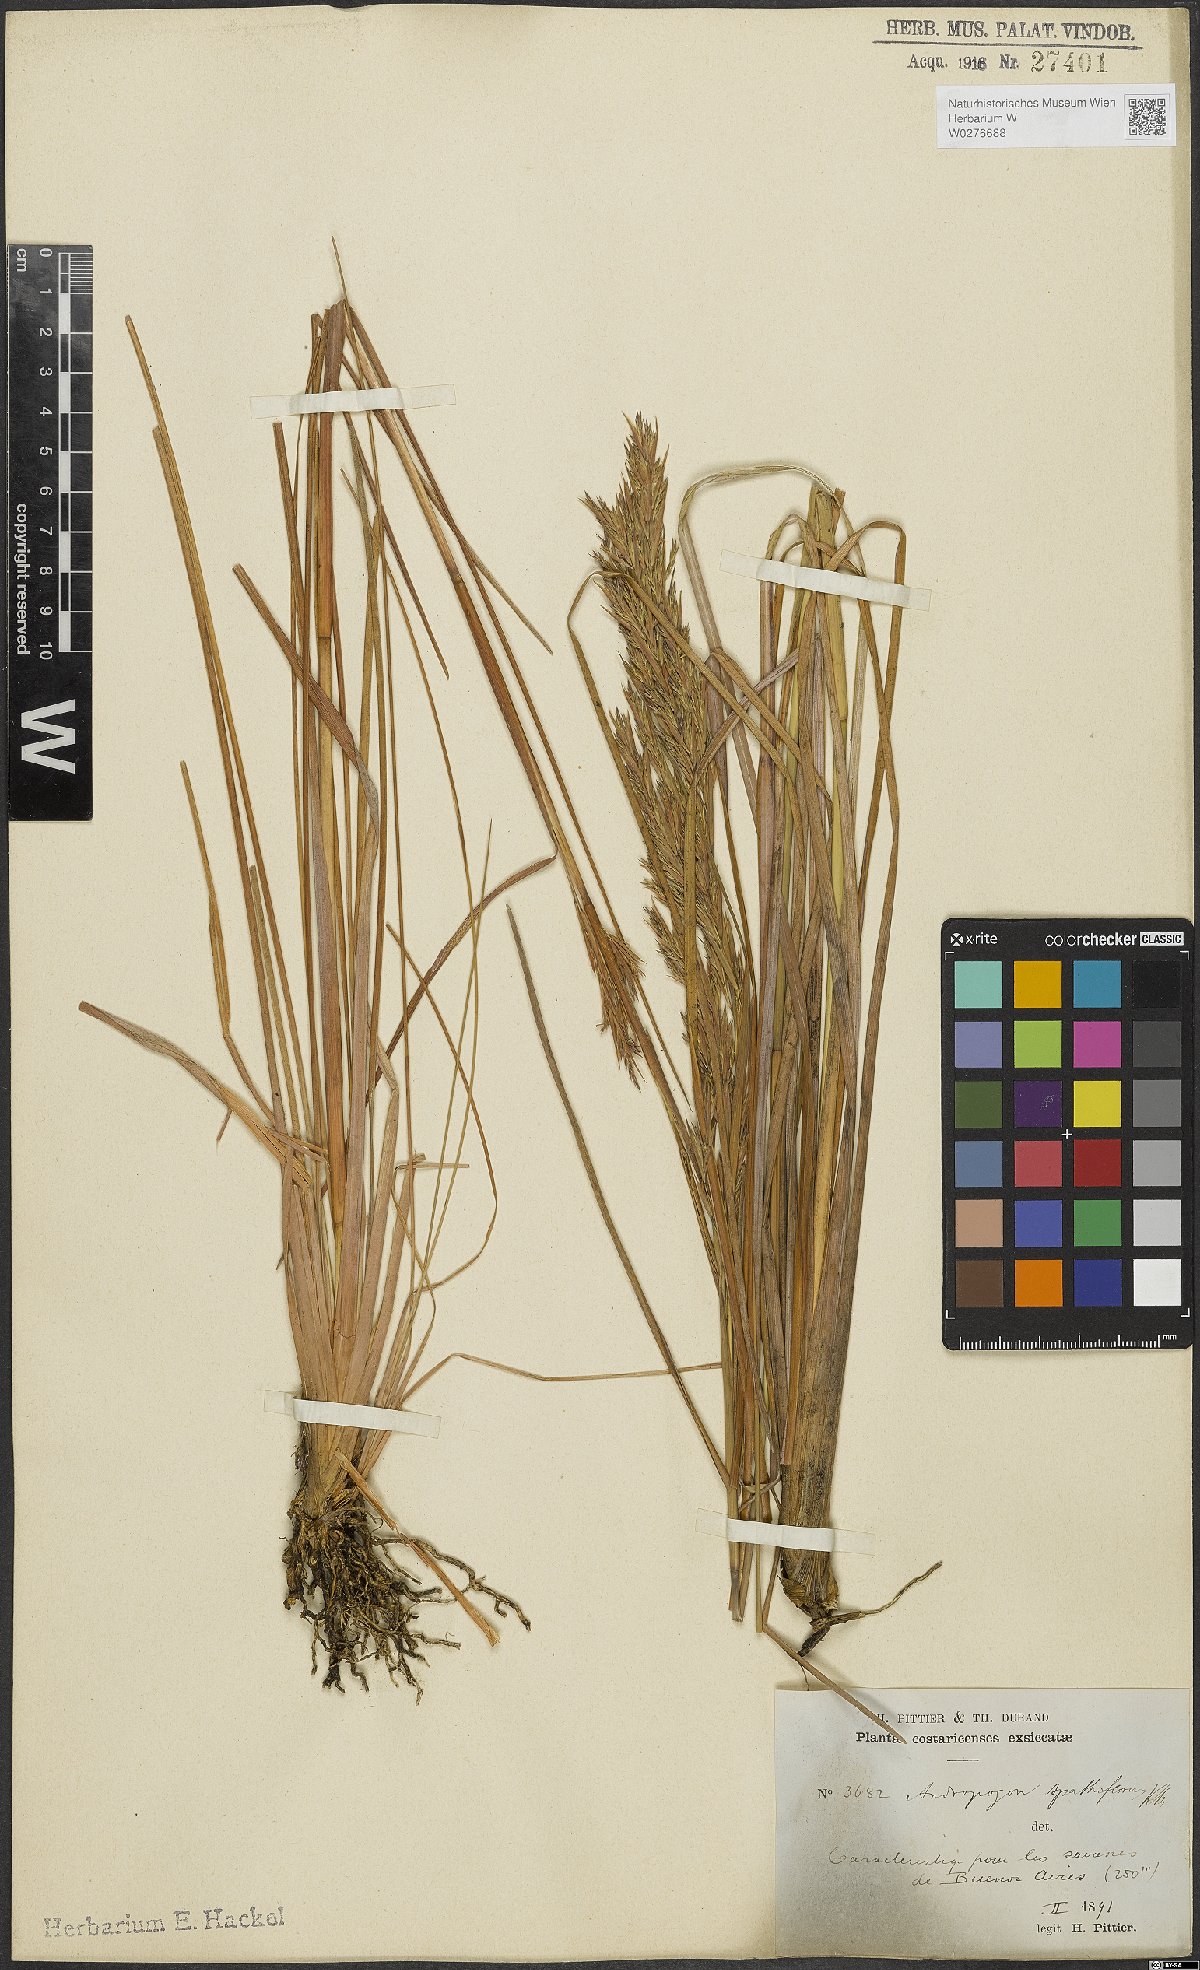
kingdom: Plantae
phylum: Tracheophyta
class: Liliopsida
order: Poales
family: Poaceae
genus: Andropogon
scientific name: Andropogon virgatus
